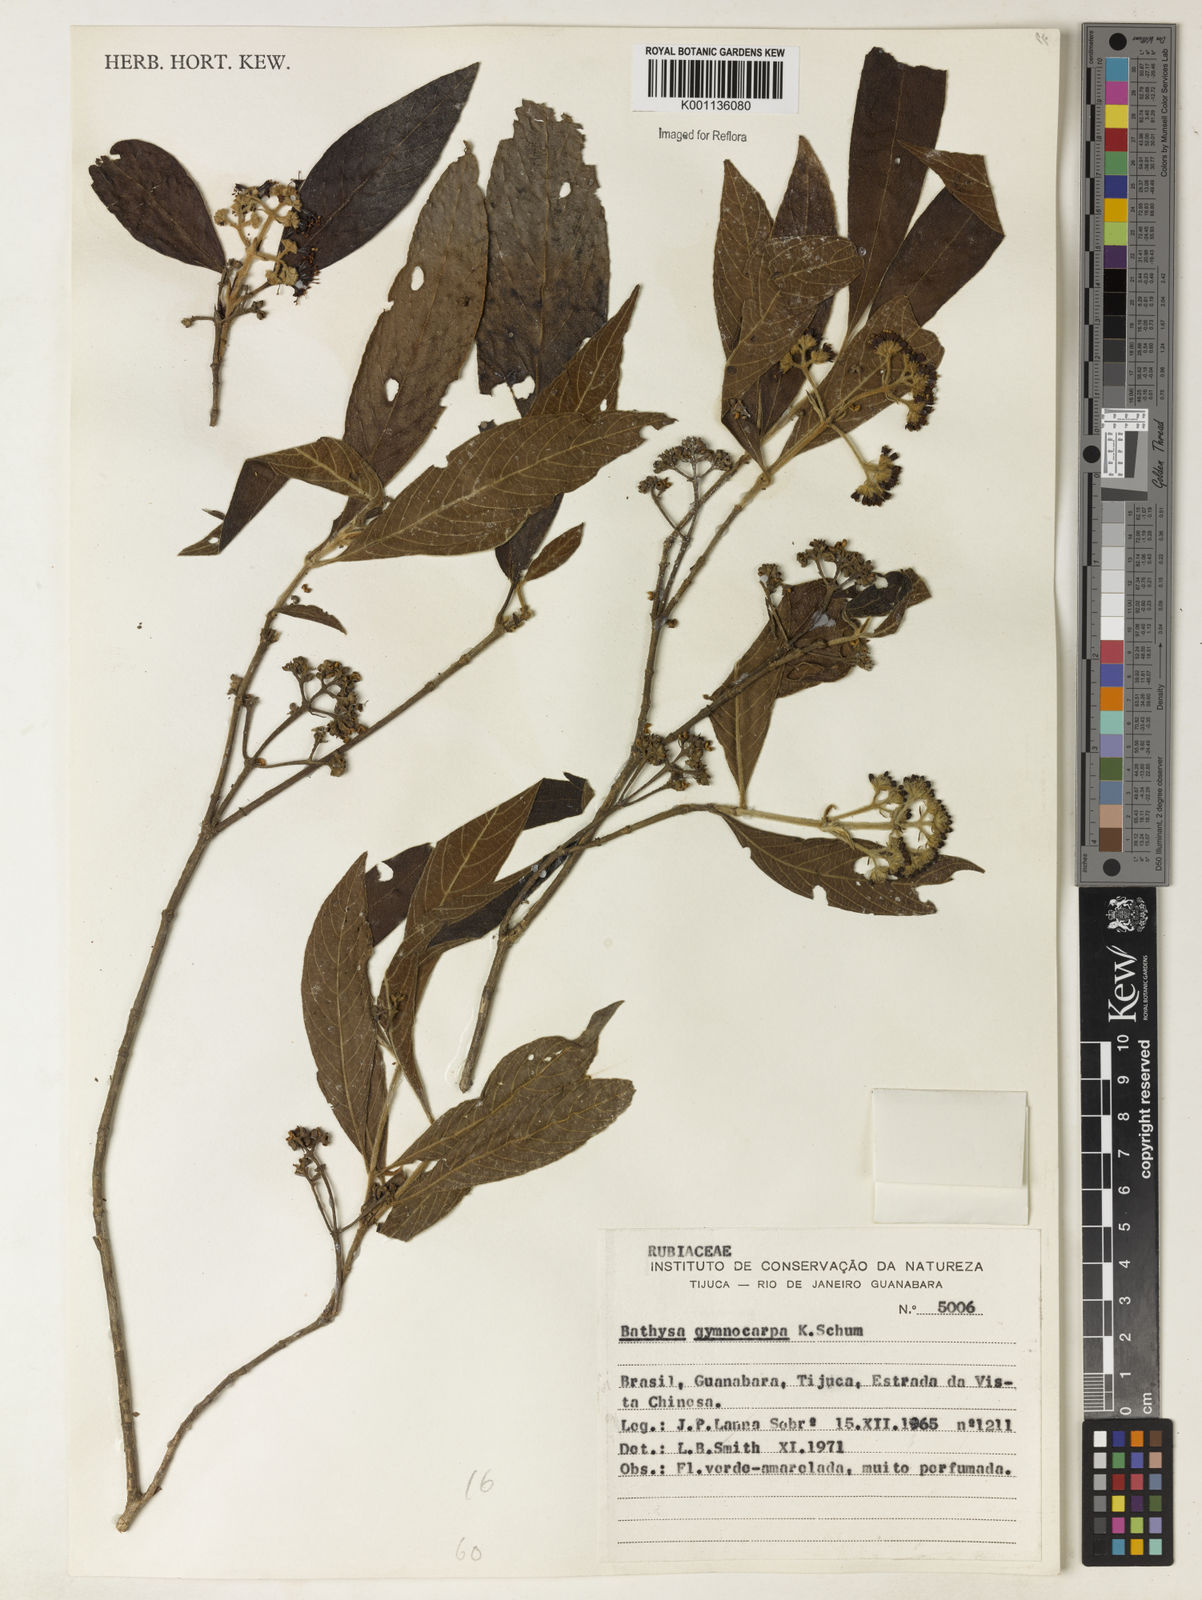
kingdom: Plantae
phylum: Tracheophyta
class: Magnoliopsida
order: Gentianales
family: Rubiaceae
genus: Bathysa
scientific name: Bathysa gymnocarpa
